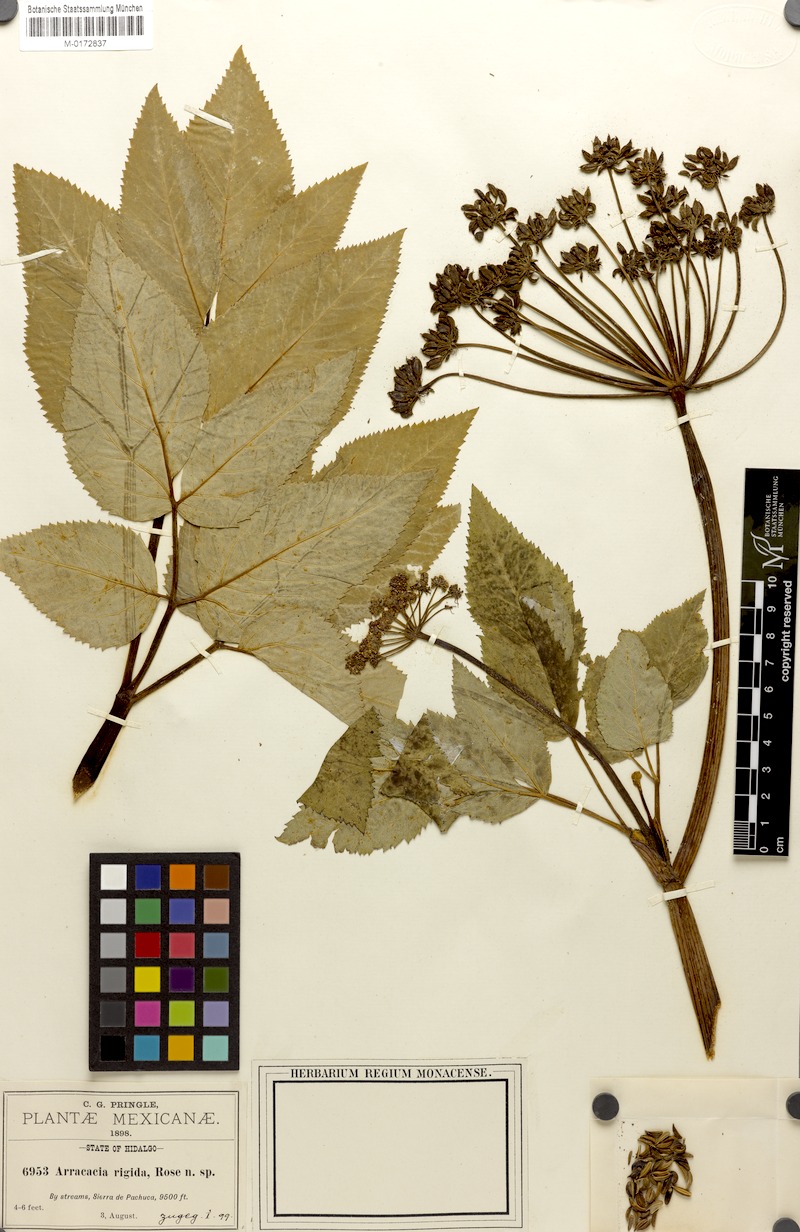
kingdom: Plantae
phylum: Tracheophyta
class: Magnoliopsida
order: Apiales
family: Apiaceae
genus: Arracacia
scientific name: Arracacia rigida
